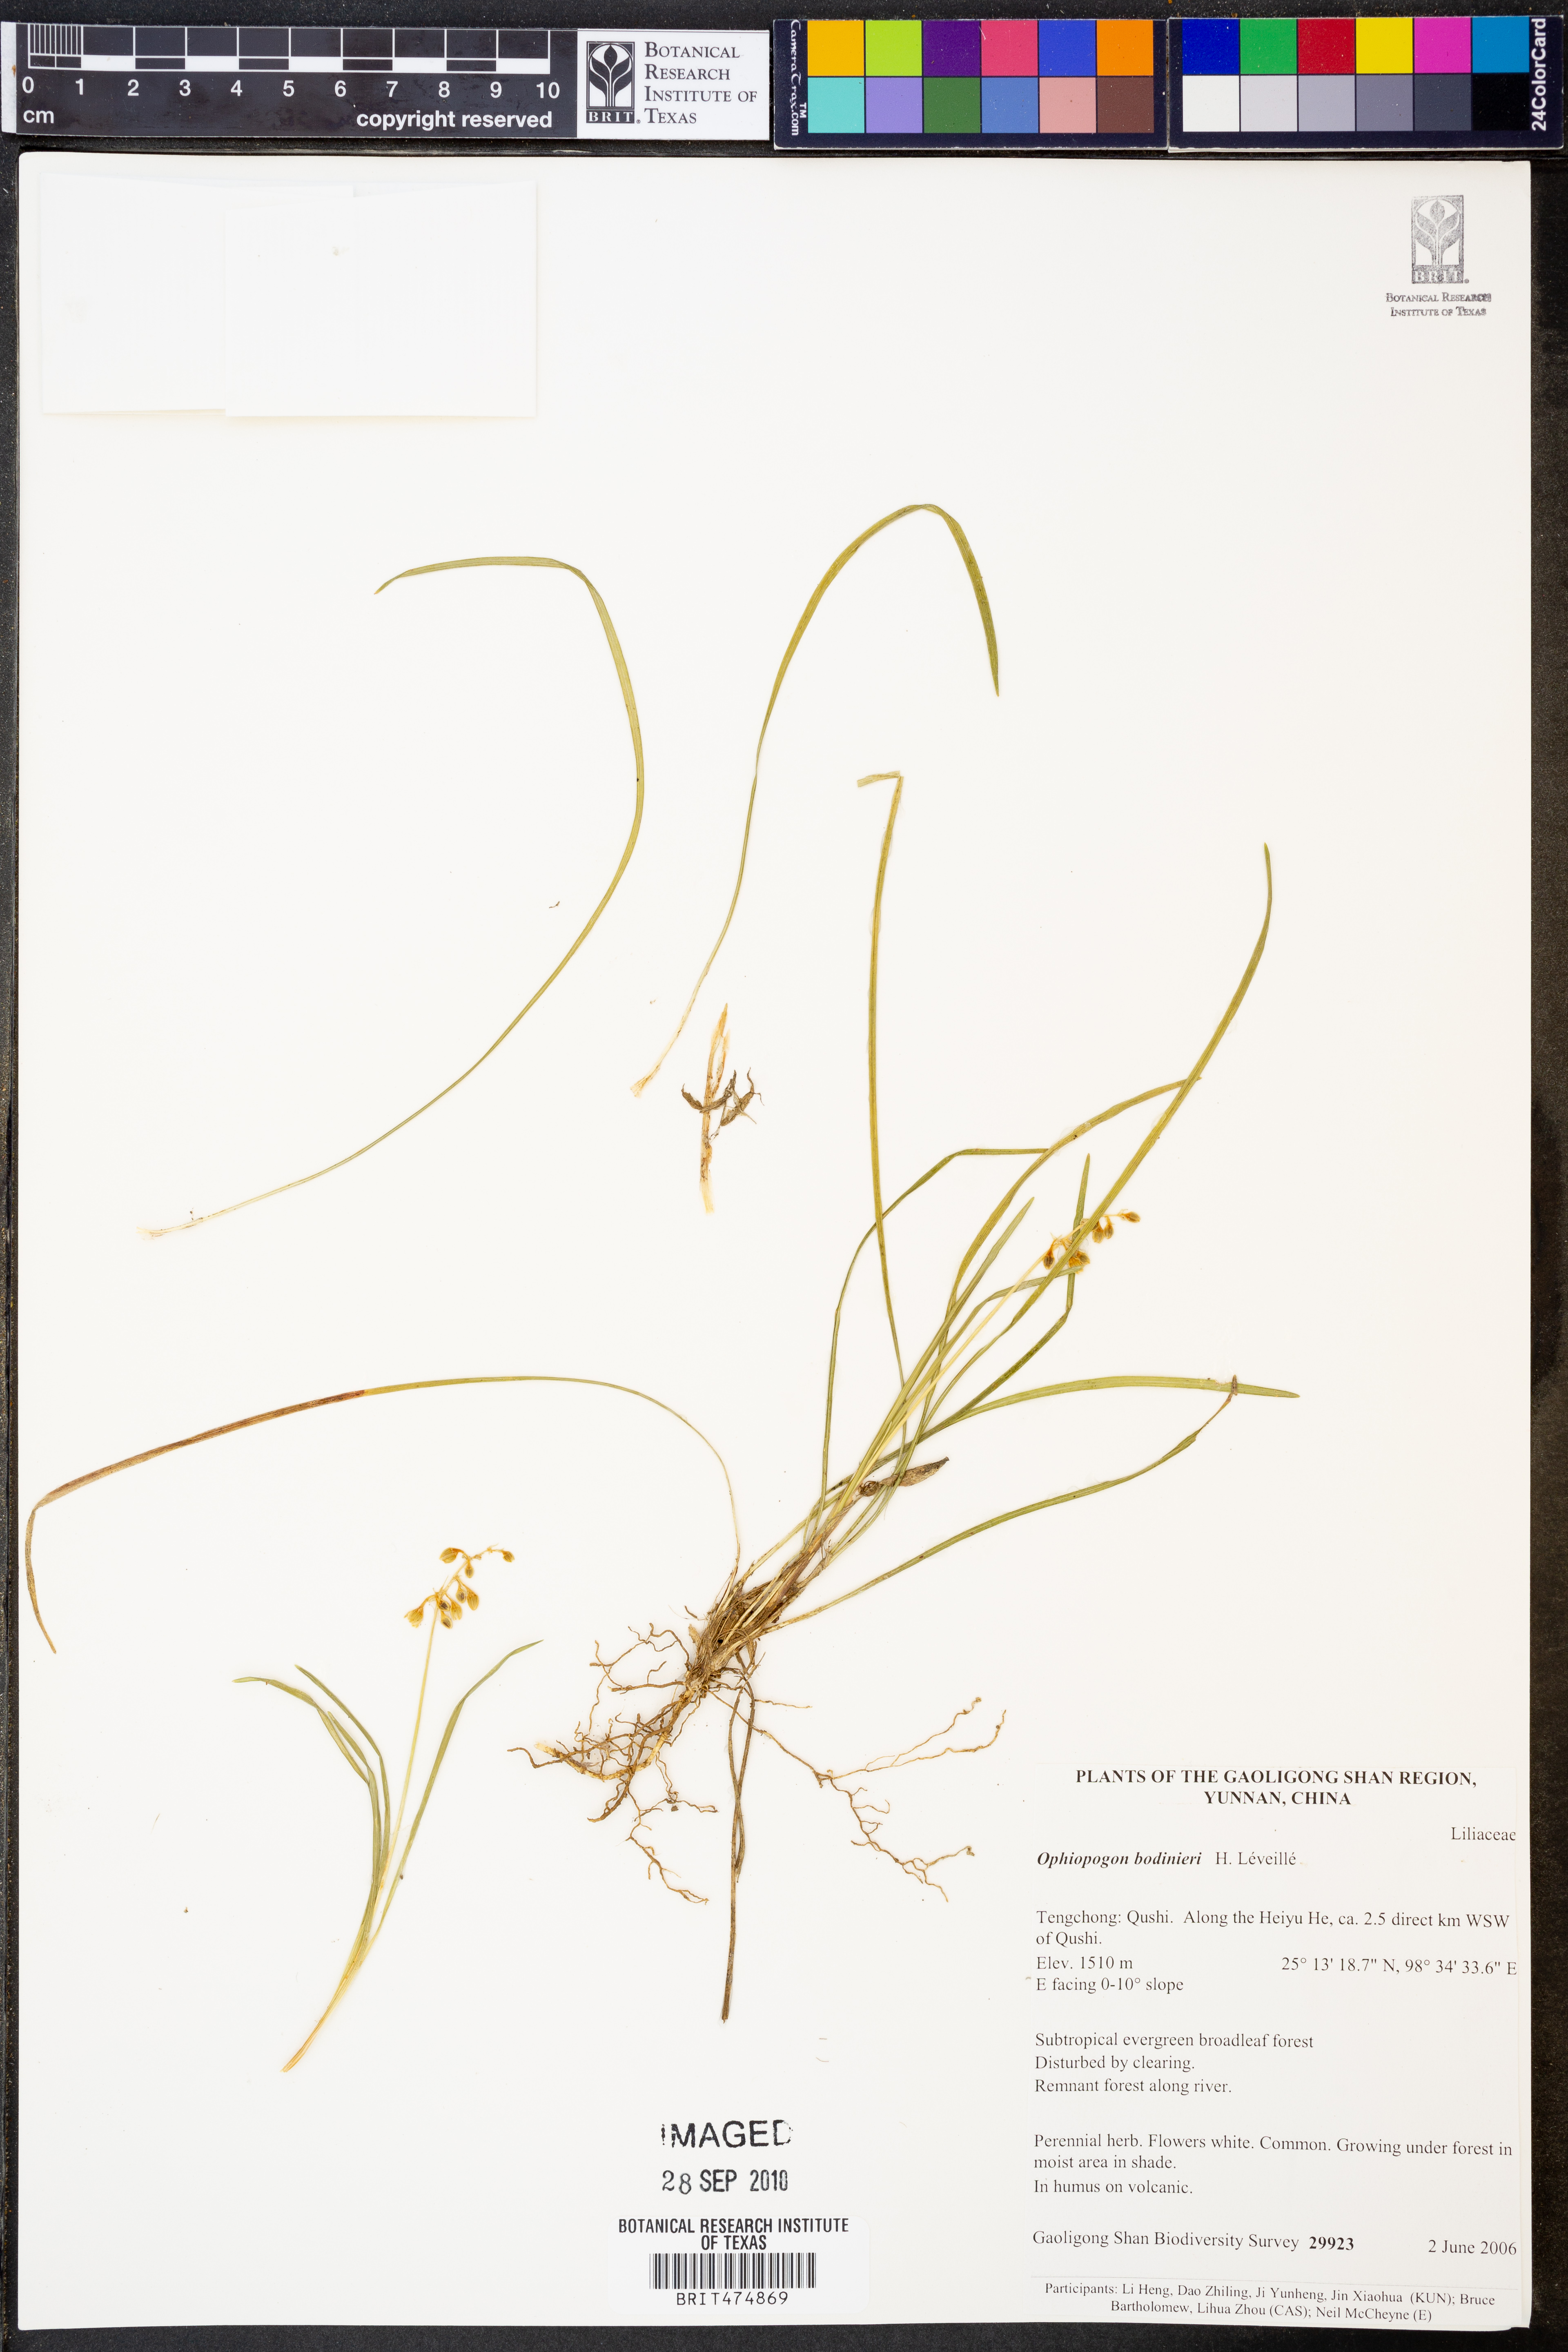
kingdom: Plantae
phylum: Tracheophyta
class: Liliopsida
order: Asparagales
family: Asparagaceae
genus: Ophiopogon
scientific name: Ophiopogon bodinieri
